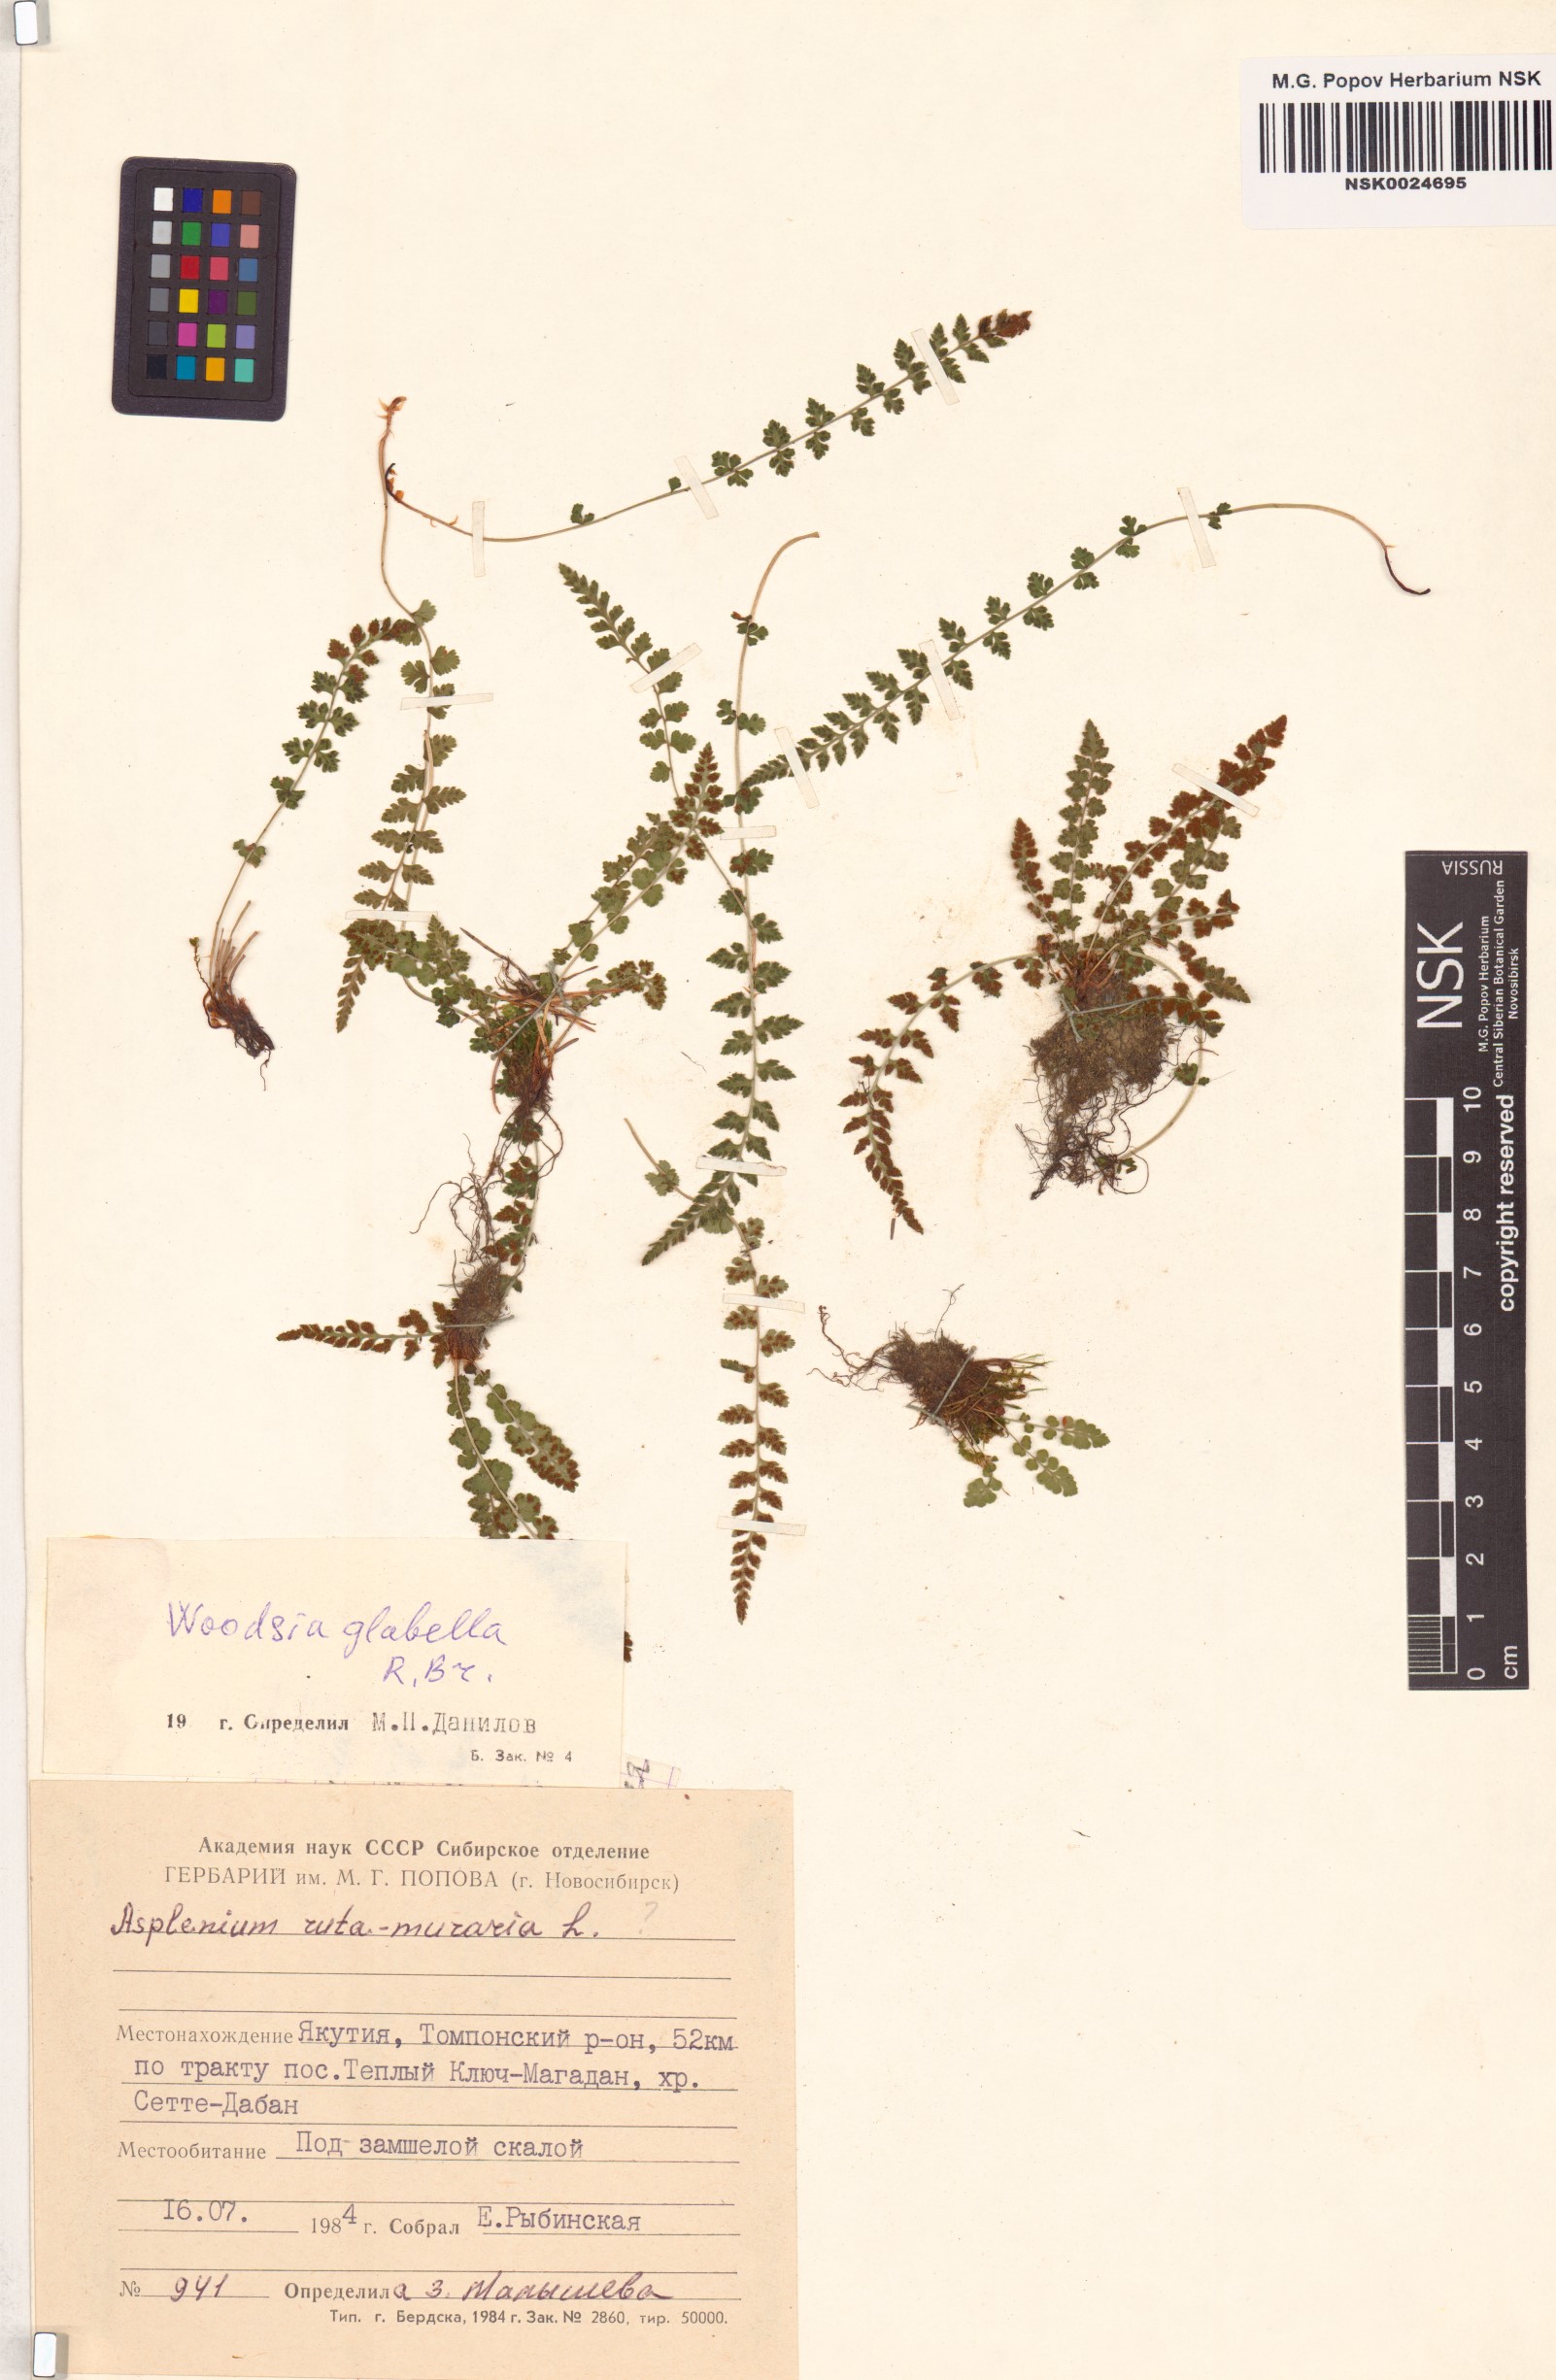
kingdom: Plantae
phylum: Tracheophyta
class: Polypodiopsida
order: Polypodiales
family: Woodsiaceae
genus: Woodsia
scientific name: Woodsia glabella
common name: Smooth woodsia
